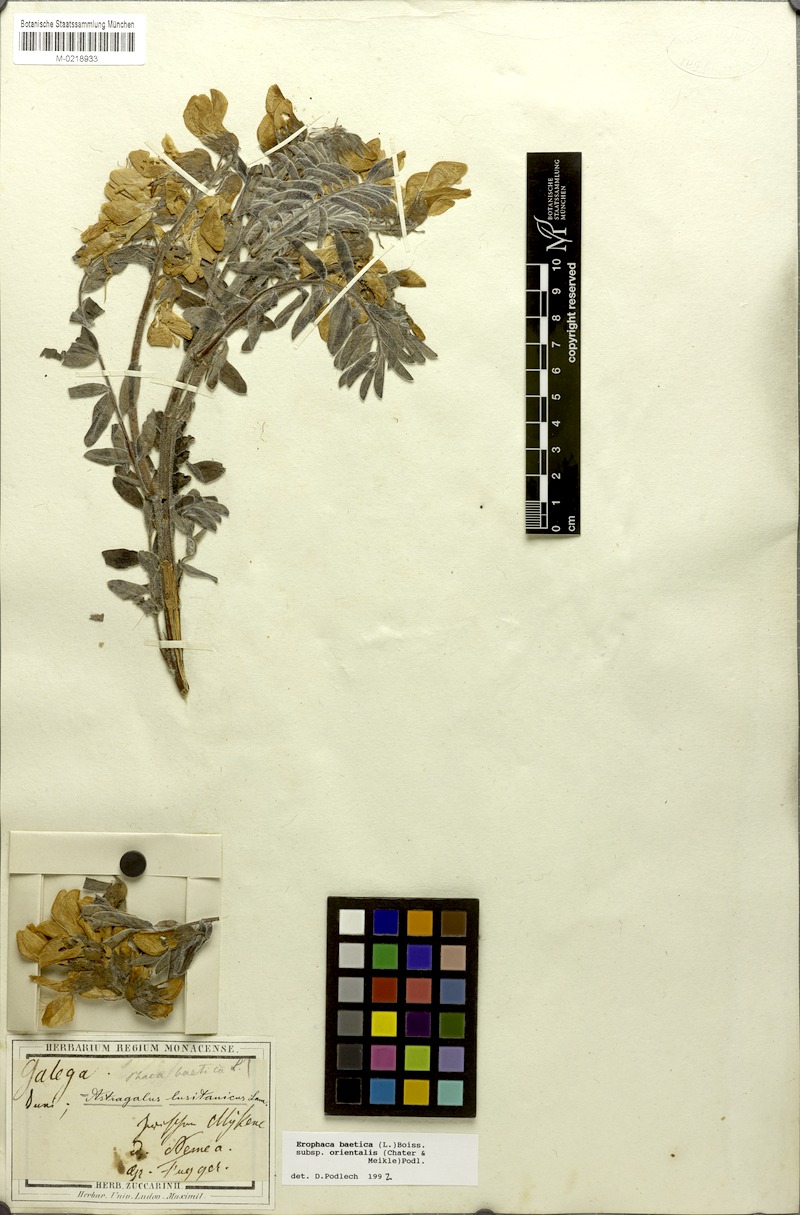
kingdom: Plantae
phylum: Tracheophyta
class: Magnoliopsida
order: Fabales
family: Fabaceae
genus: Erophaca
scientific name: Erophaca baetica
